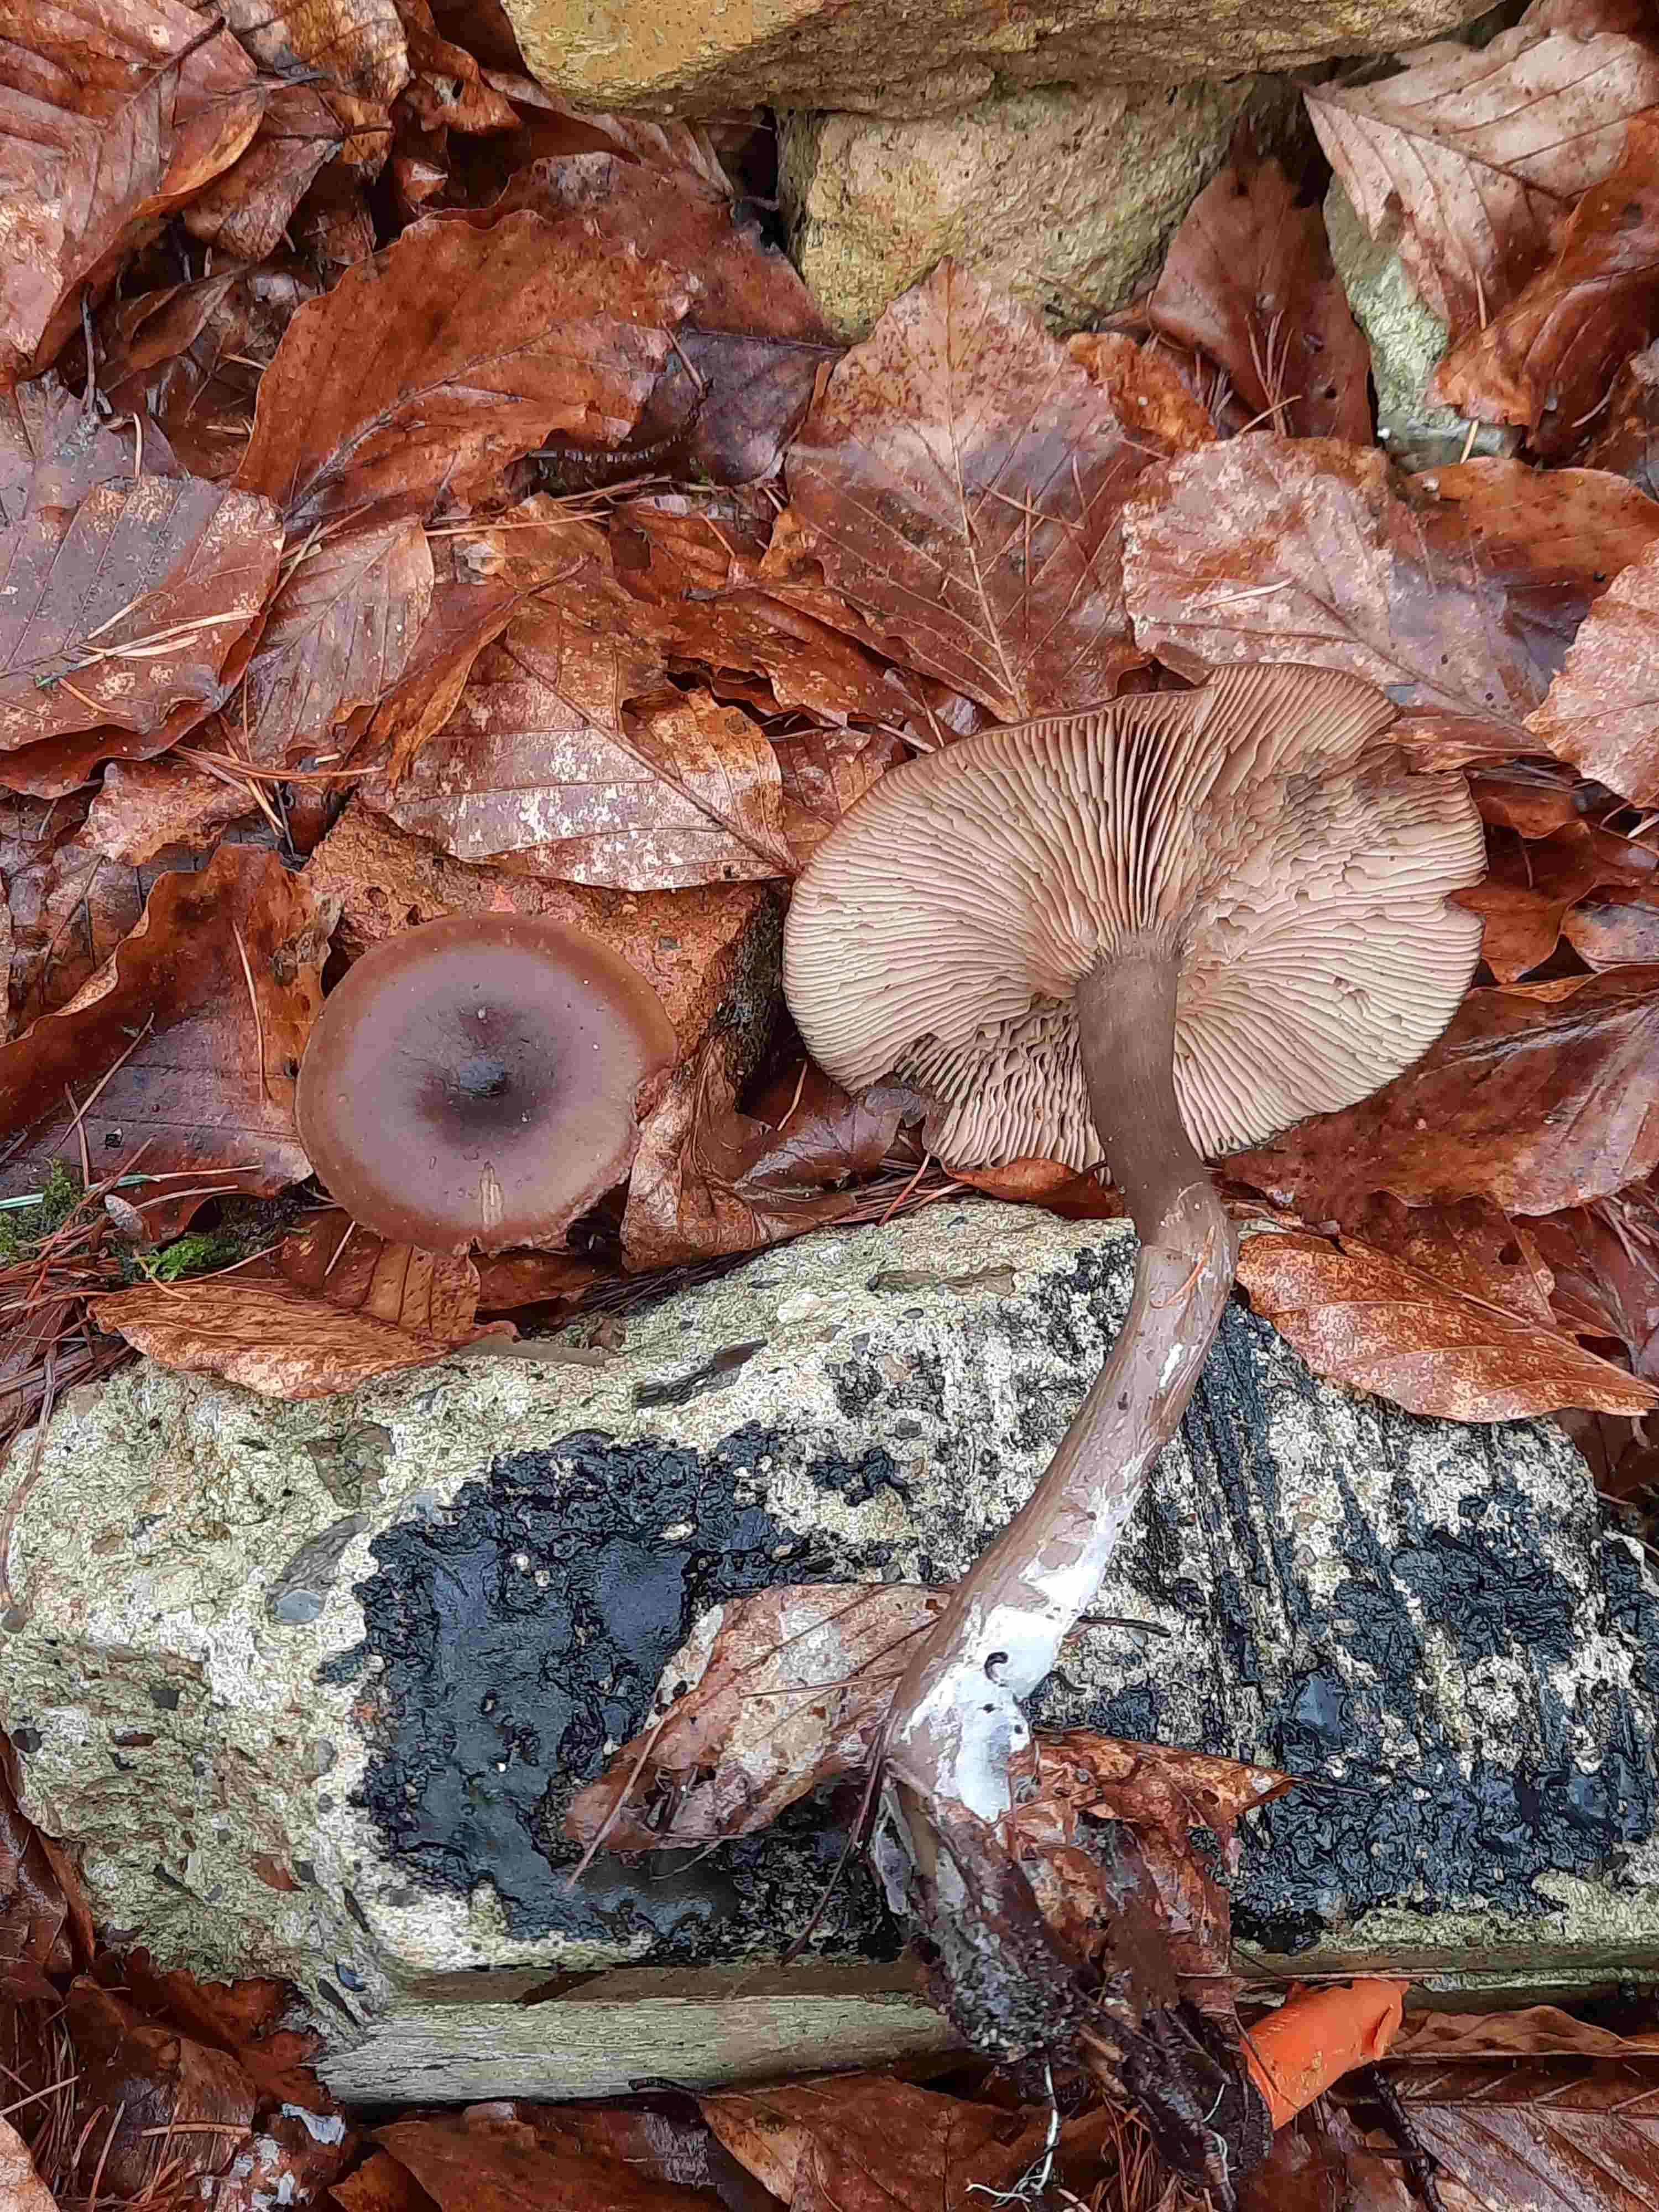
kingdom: Fungi
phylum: Basidiomycota
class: Agaricomycetes
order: Agaricales
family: Pseudoclitocybaceae
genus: Pseudoclitocybe
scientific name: Pseudoclitocybe cyathiformis
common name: almindelig bægertragthat
